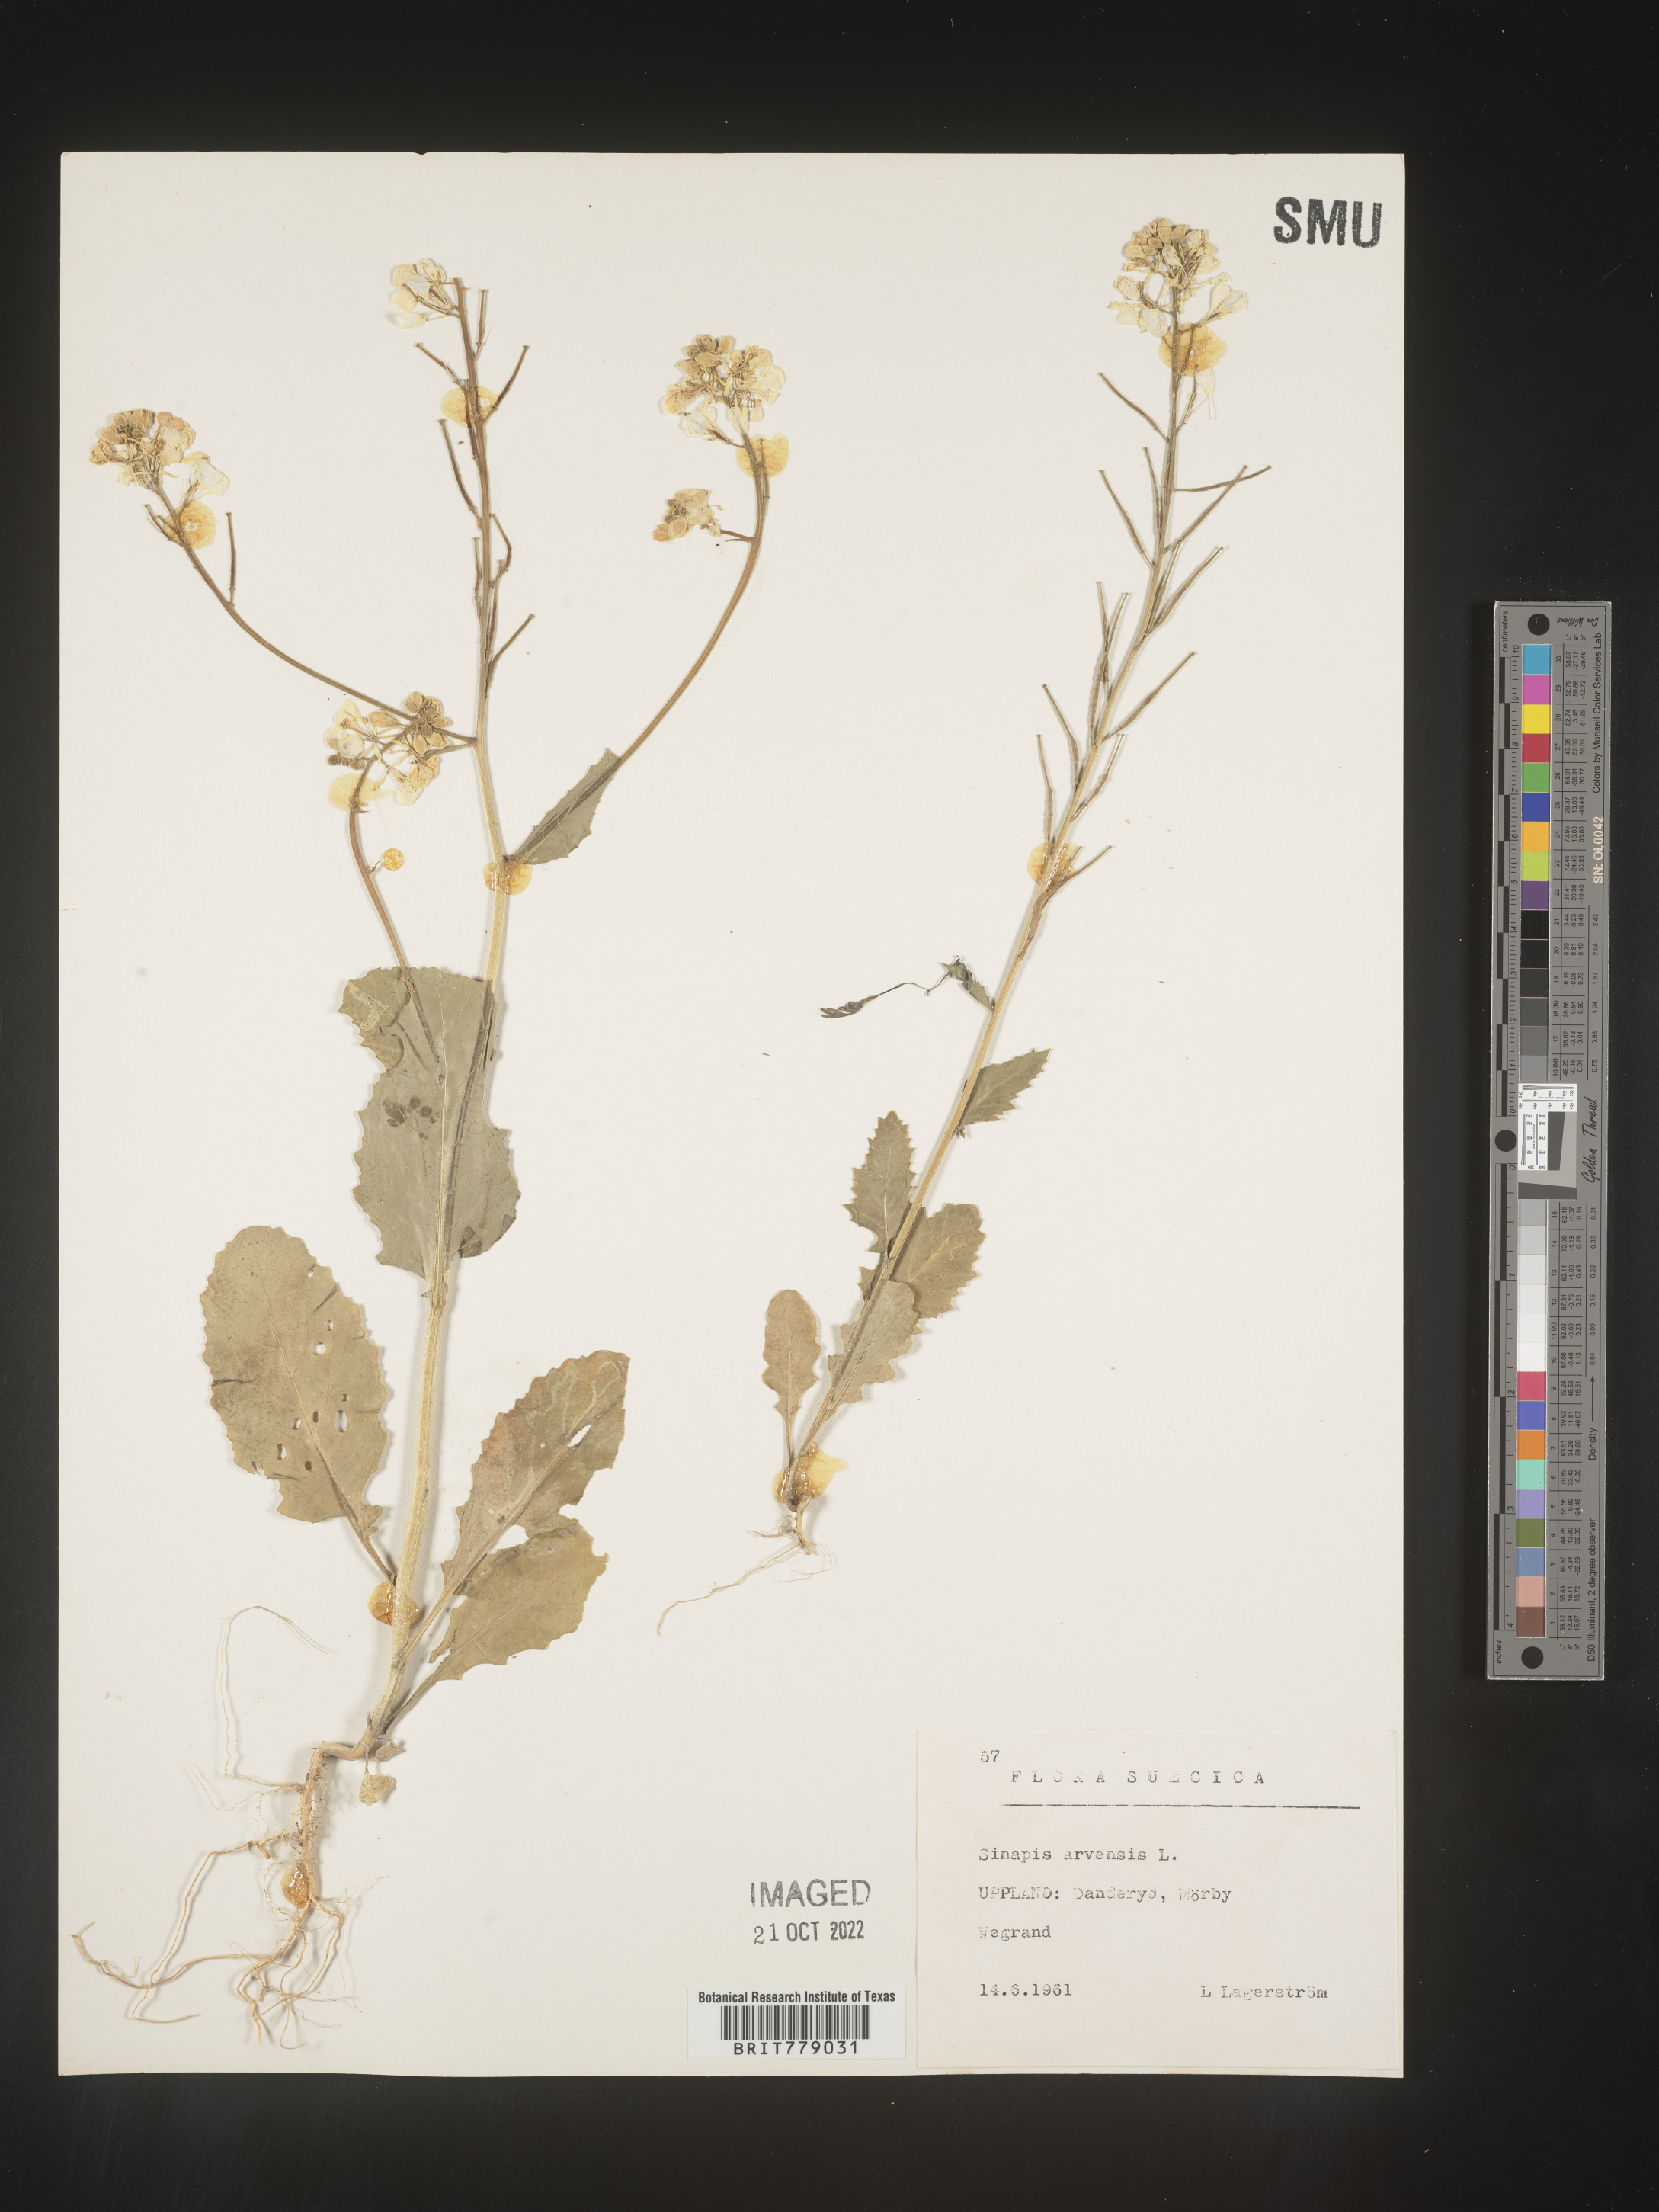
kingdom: Plantae
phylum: Tracheophyta
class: Magnoliopsida
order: Brassicales
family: Brassicaceae
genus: Sinapis
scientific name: Sinapis
